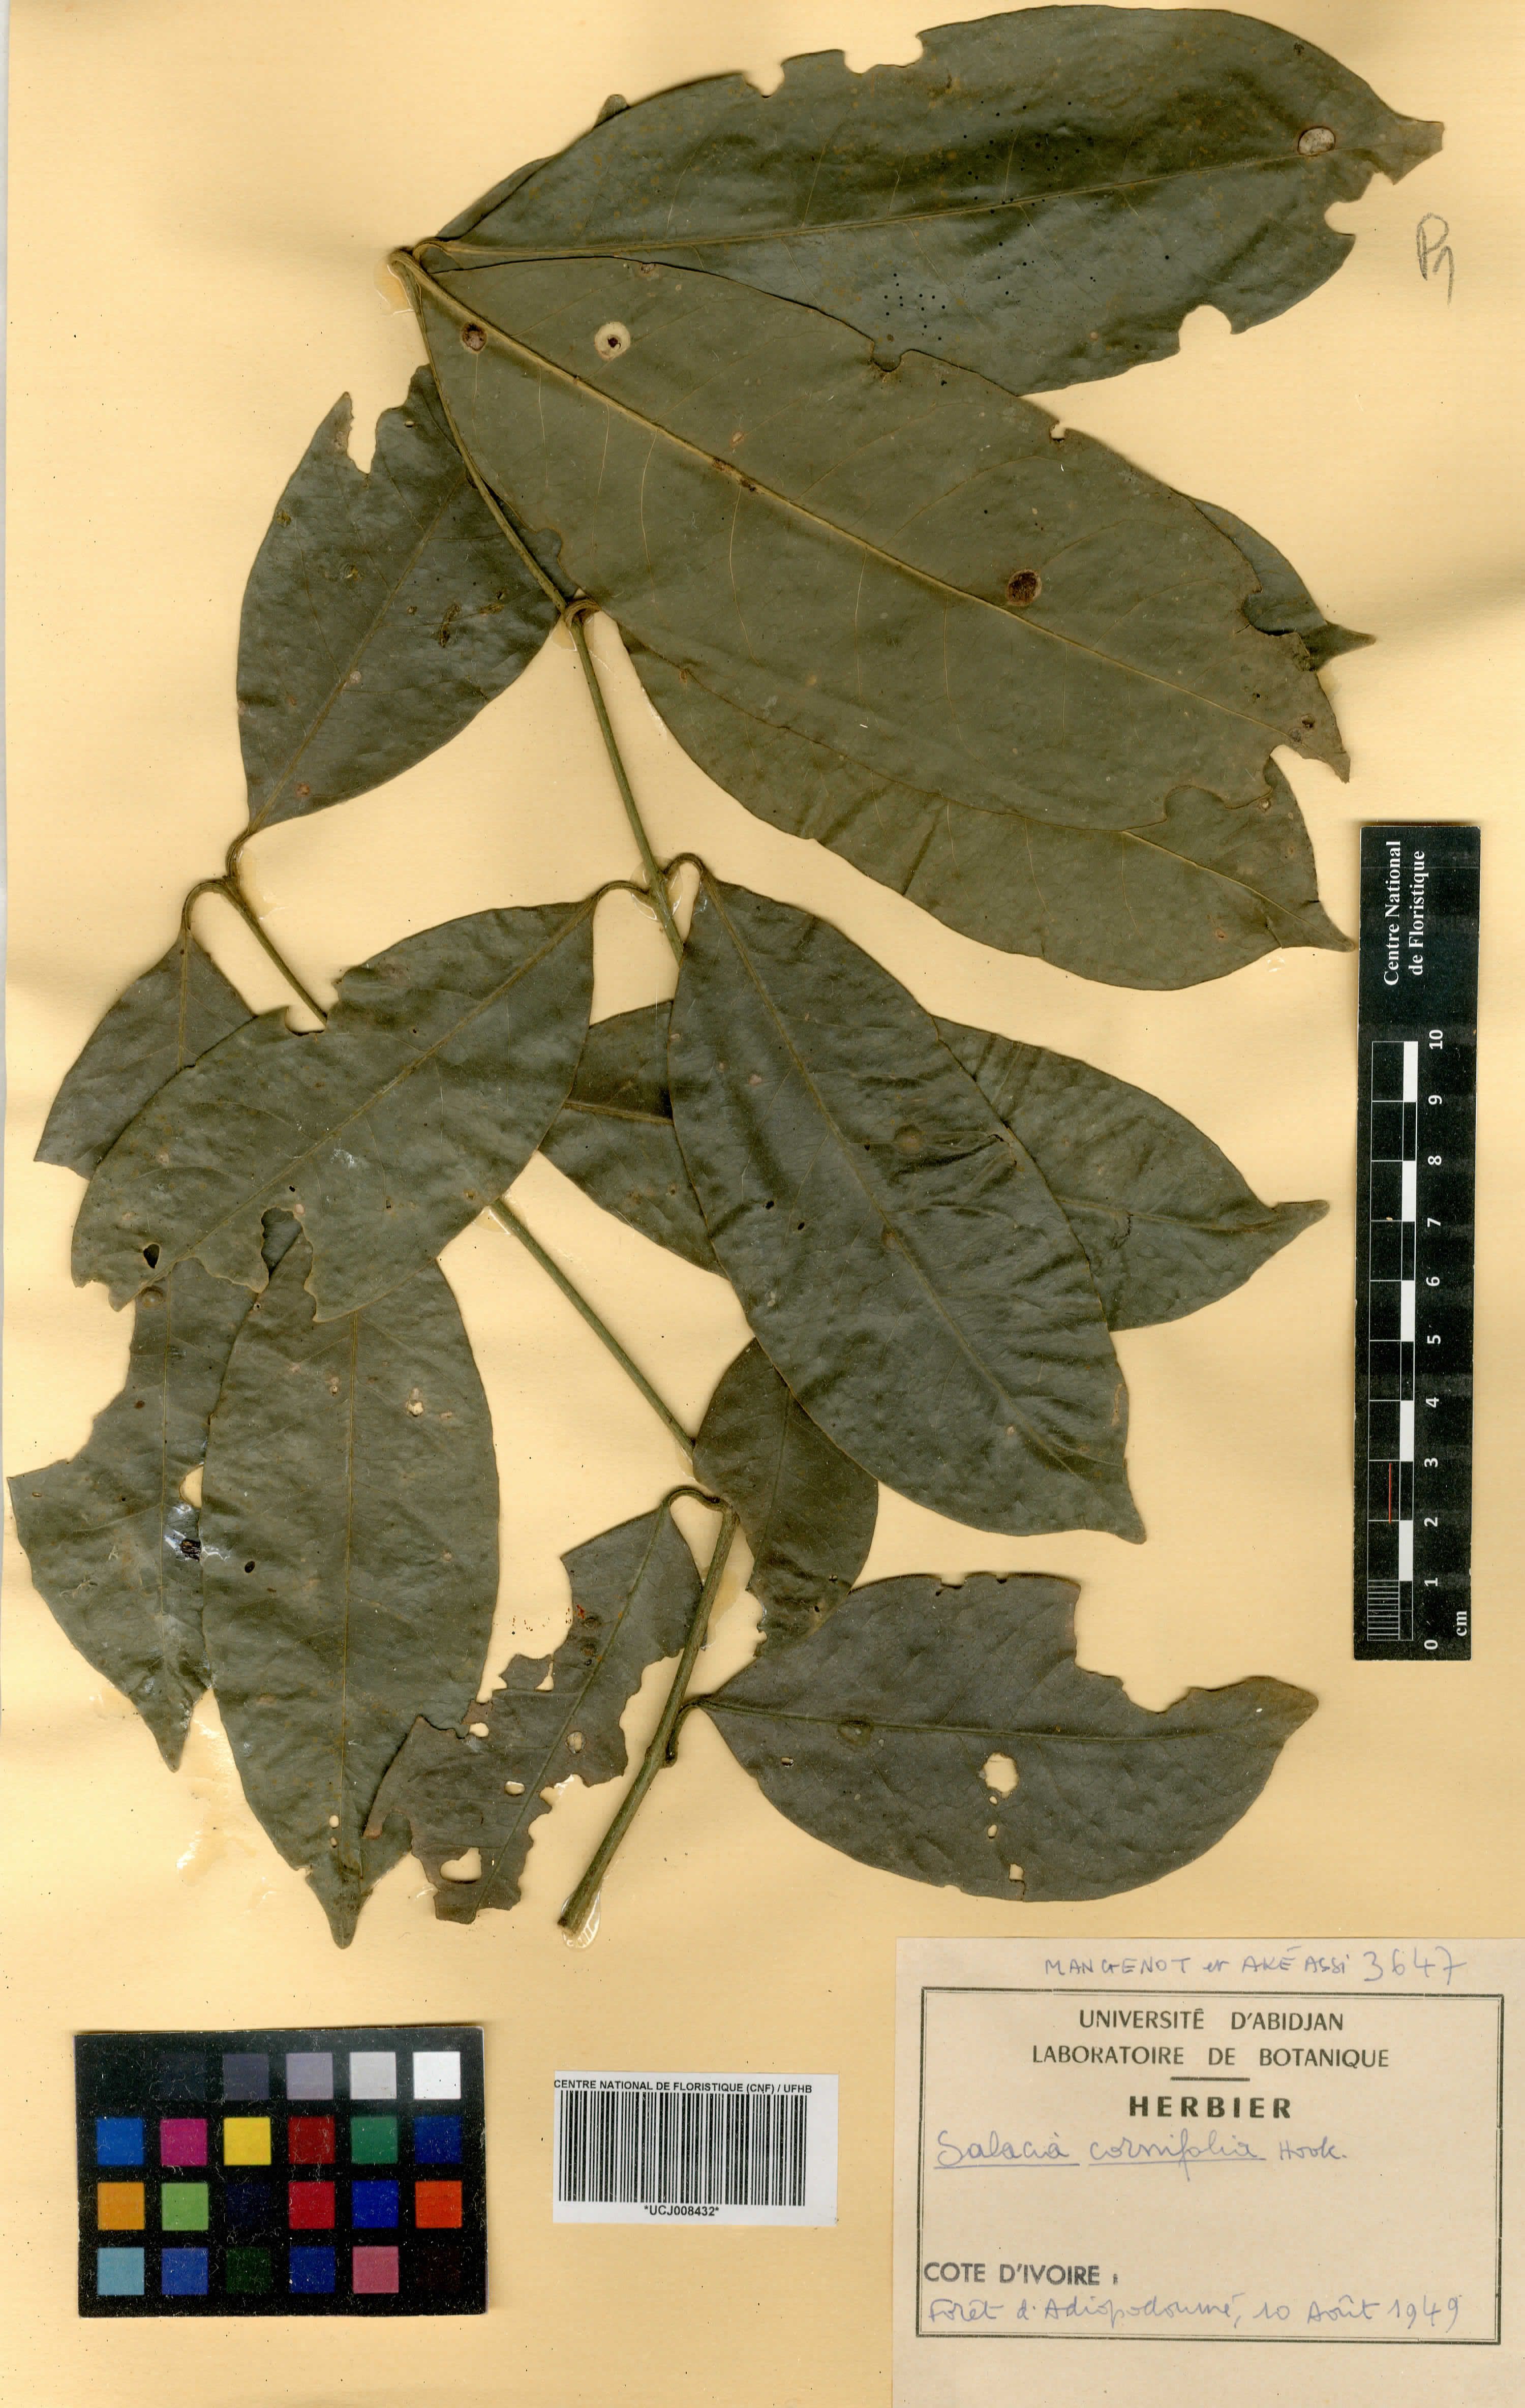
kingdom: Plantae
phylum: Tracheophyta
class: Magnoliopsida
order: Celastrales
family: Celastraceae
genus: Salacia
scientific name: Salacia cornifolia
